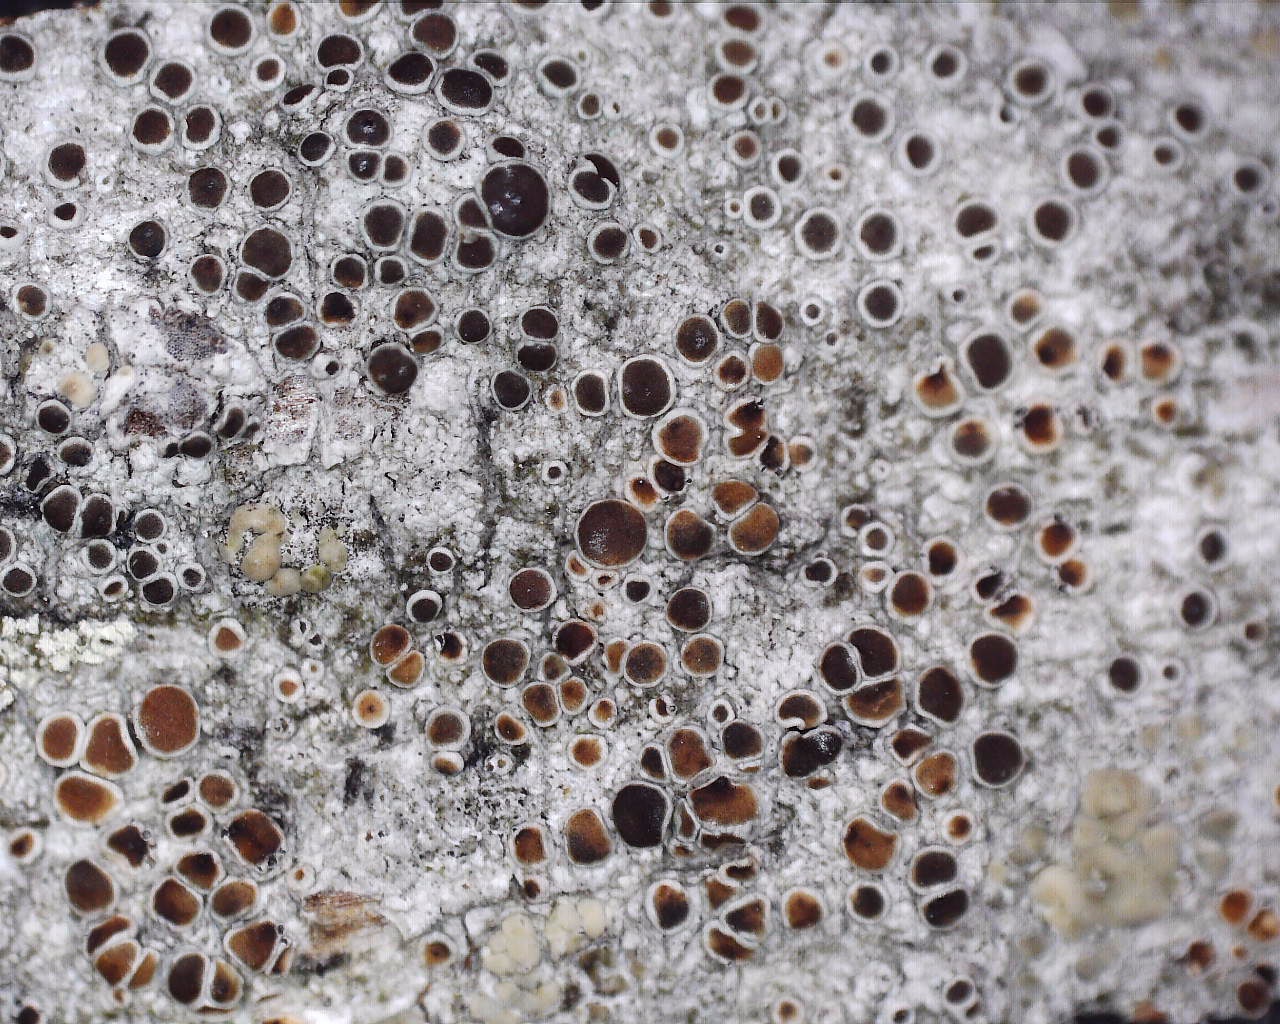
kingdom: Fungi
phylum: Ascomycota
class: Lecanoromycetes
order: Lecanorales
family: Lecanoraceae
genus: Lecanora
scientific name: Lecanora pulicaris
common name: almindelig kantskivelav
